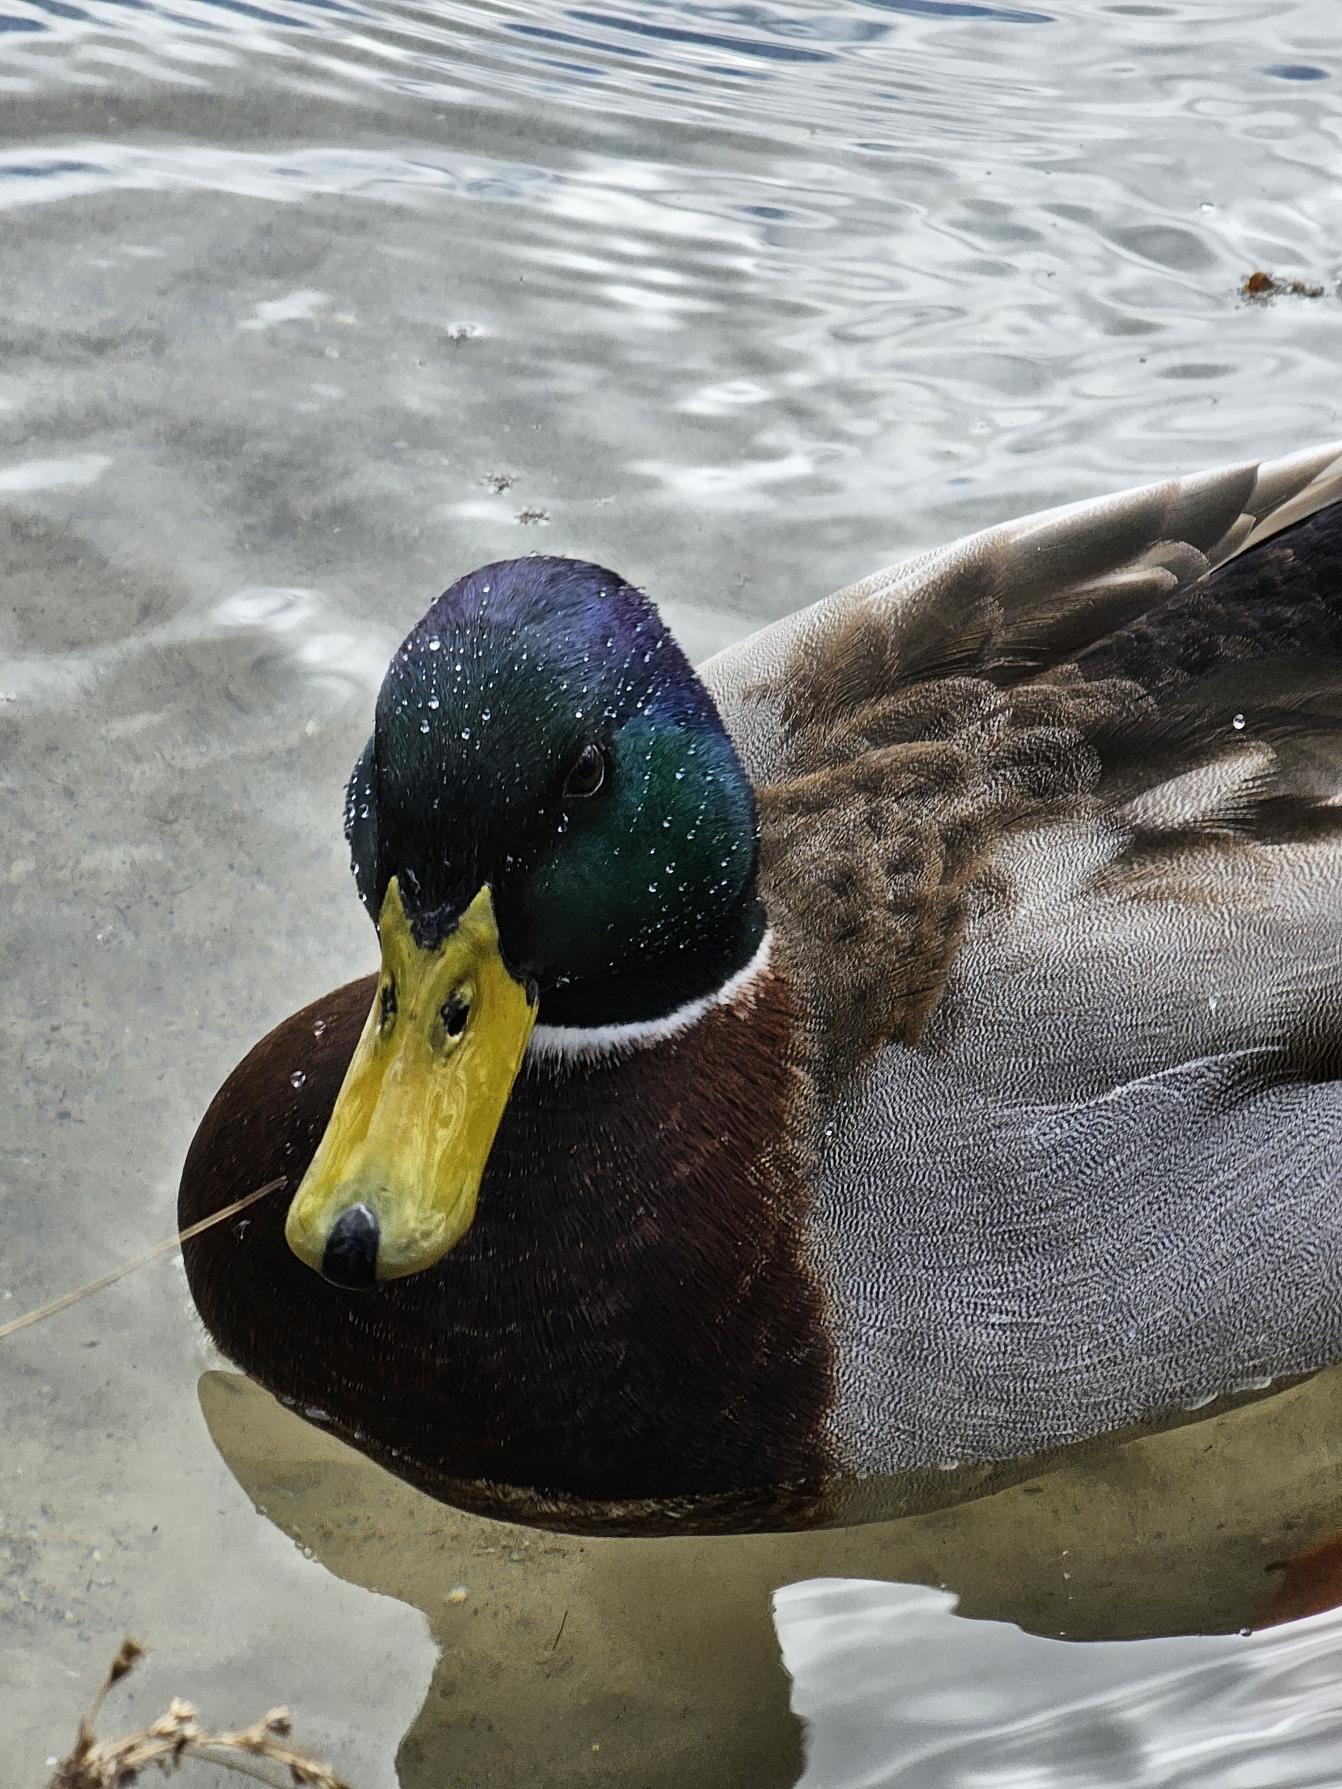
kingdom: Animalia
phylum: Chordata
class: Aves
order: Anseriformes
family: Anatidae
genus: Anas
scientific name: Anas platyrhynchos
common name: Gråand
